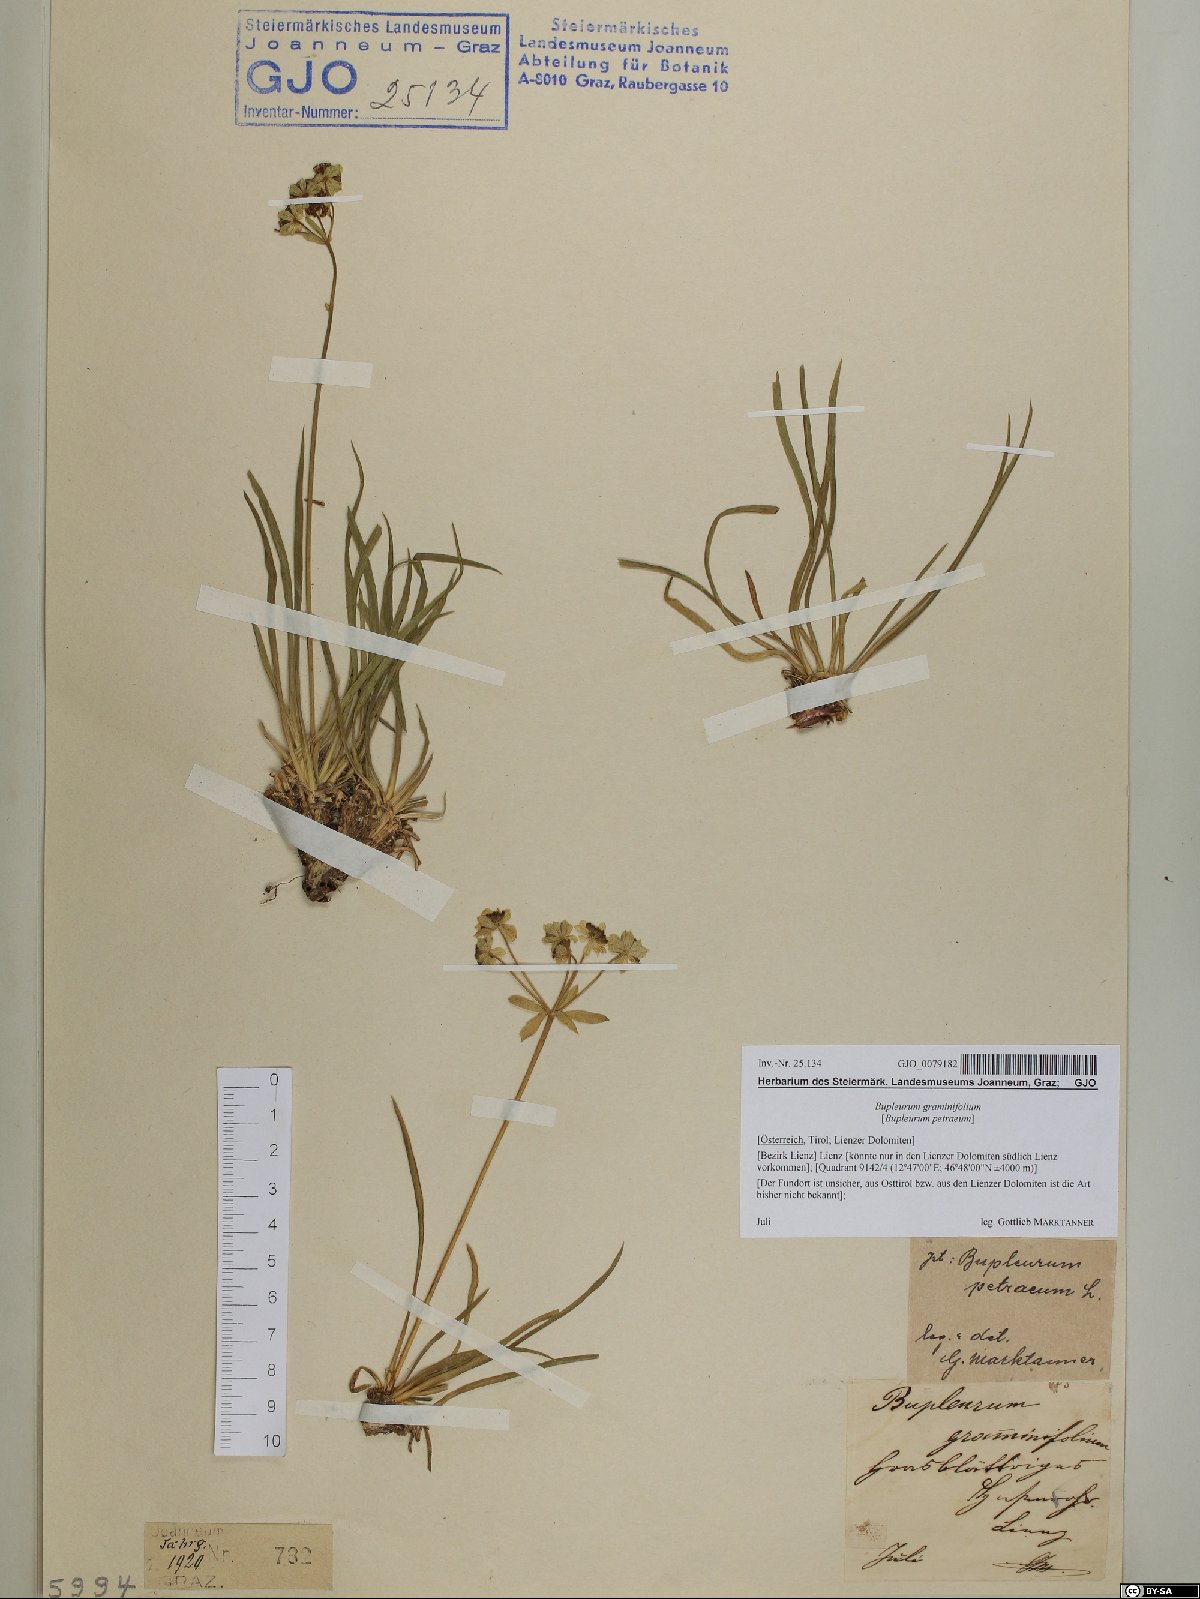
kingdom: Plantae
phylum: Tracheophyta
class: Magnoliopsida
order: Apiales
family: Apiaceae
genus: Bupleurum
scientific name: Bupleurum petraeum
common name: Rock hare's-ear
